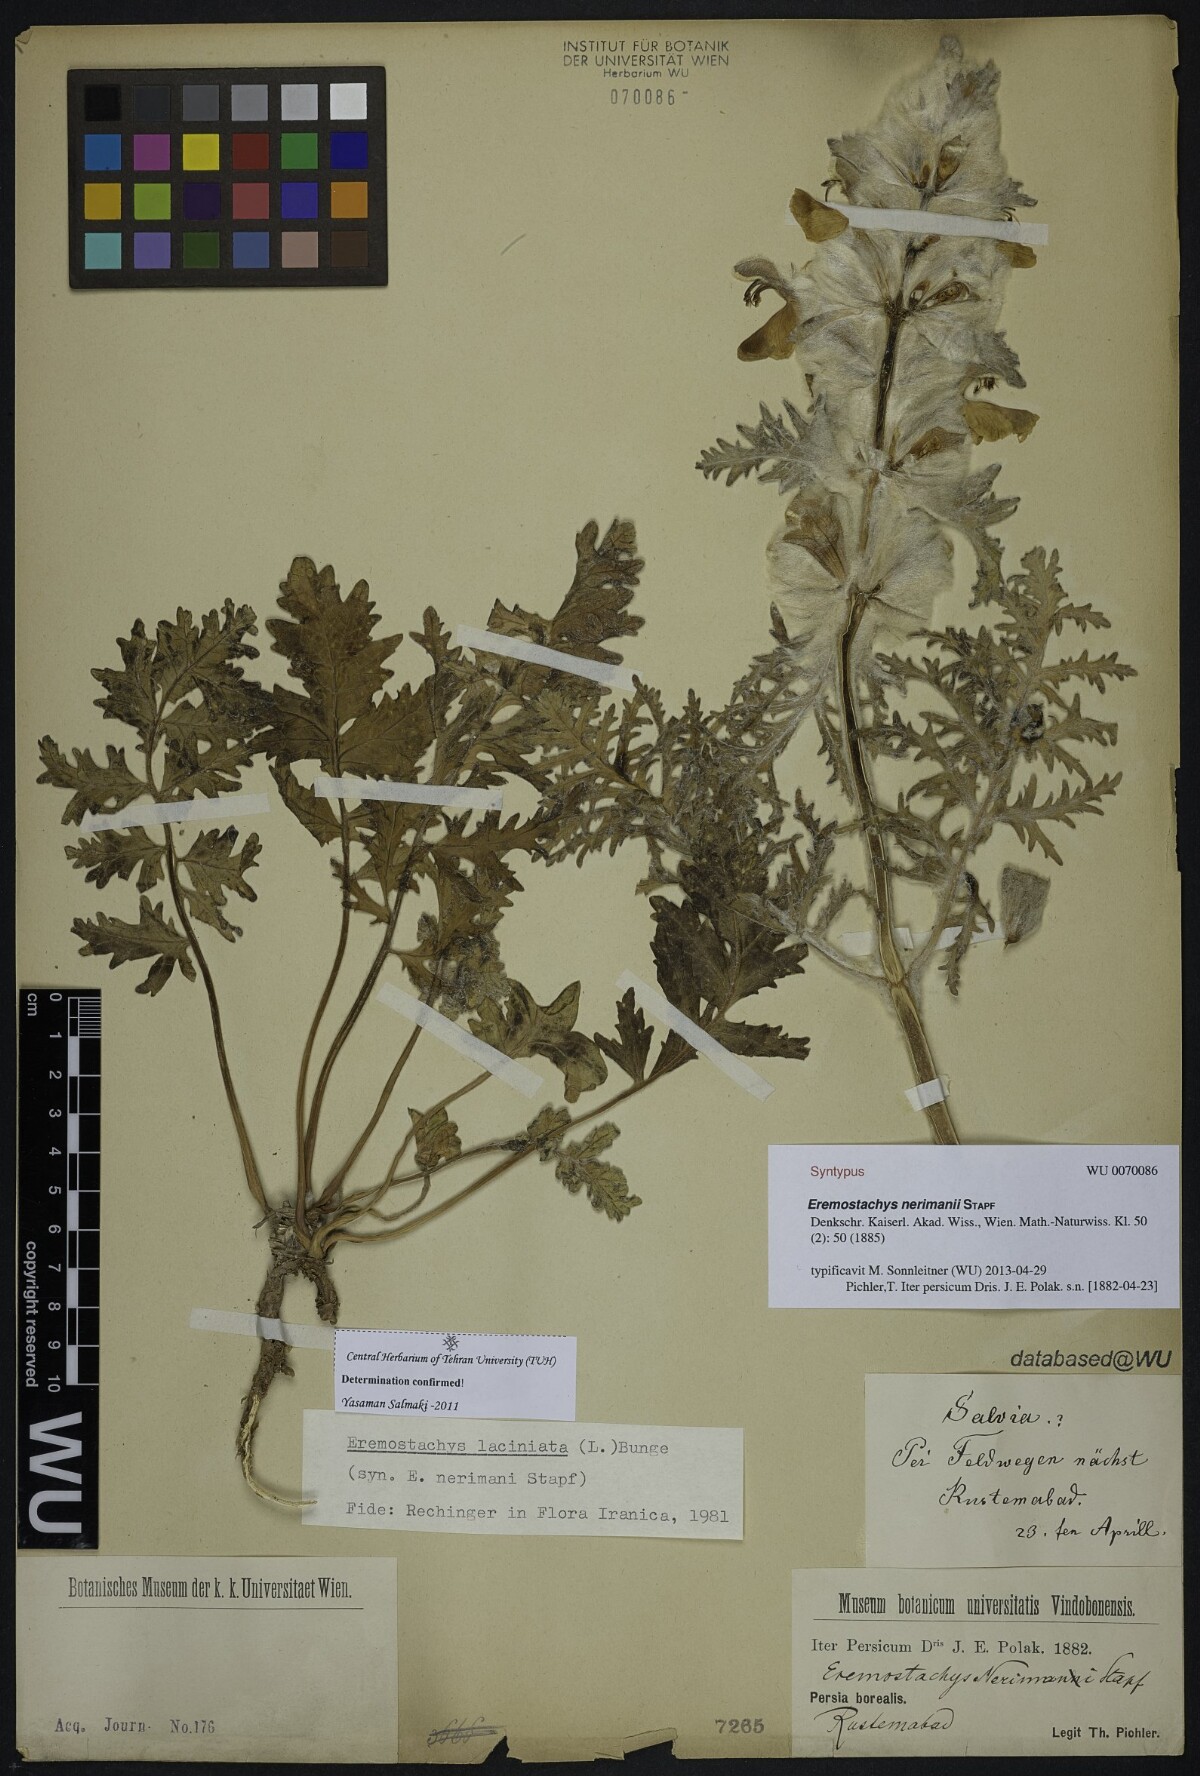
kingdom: Plantae
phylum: Tracheophyta
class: Magnoliopsida
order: Lamiales
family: Lamiaceae
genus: Phlomoides
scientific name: Phlomoides laciniata
